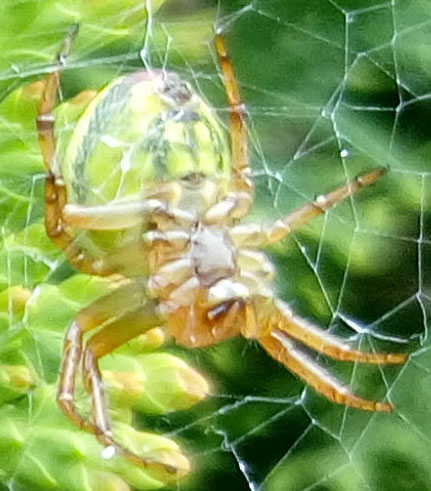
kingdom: Animalia
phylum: Arthropoda
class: Arachnida
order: Araneae
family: Araneidae
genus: Araneus
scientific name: Araneus
